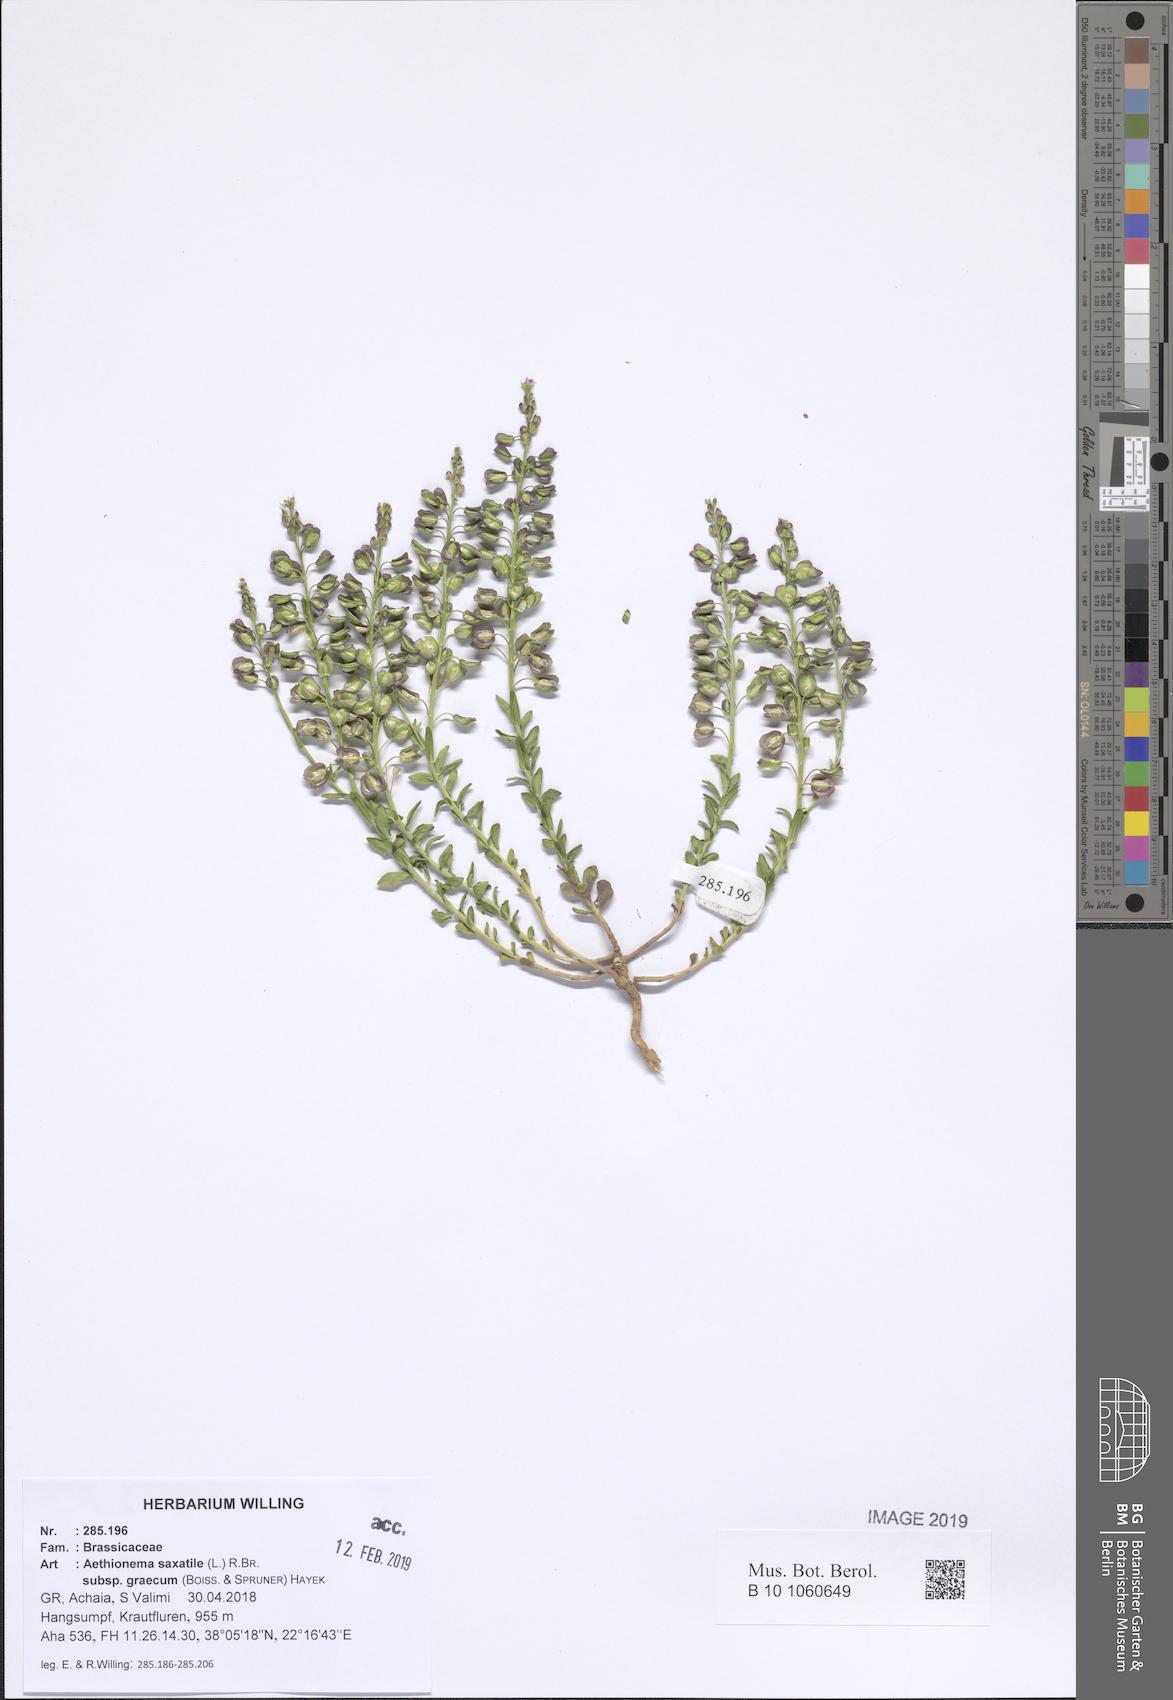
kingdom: Plantae
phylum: Tracheophyta
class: Magnoliopsida
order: Brassicales
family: Brassicaceae
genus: Aethionema
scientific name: Aethionema saxatile
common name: Burnt candytuft
